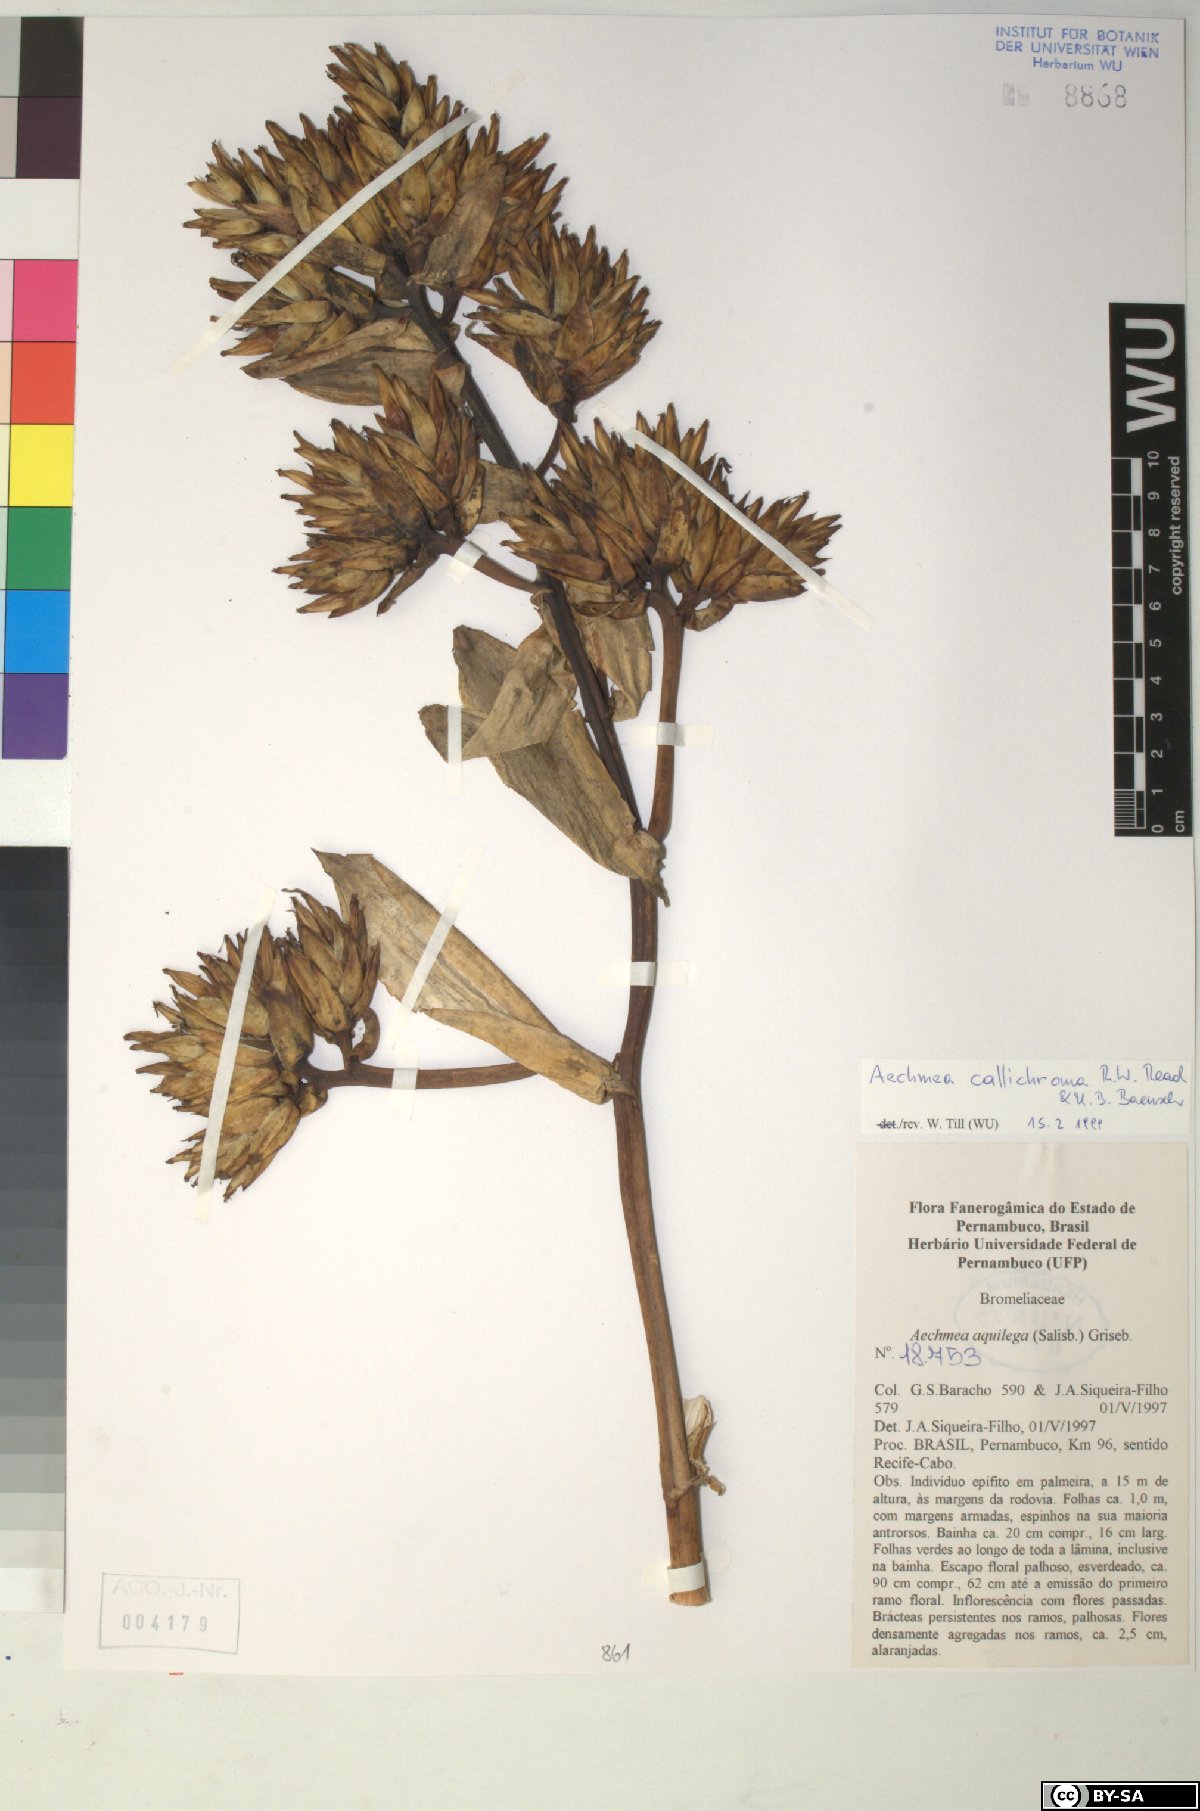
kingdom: Plantae
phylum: Tracheophyta
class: Liliopsida
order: Poales
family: Bromeliaceae
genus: Aechmea
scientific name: Aechmea aquilega
